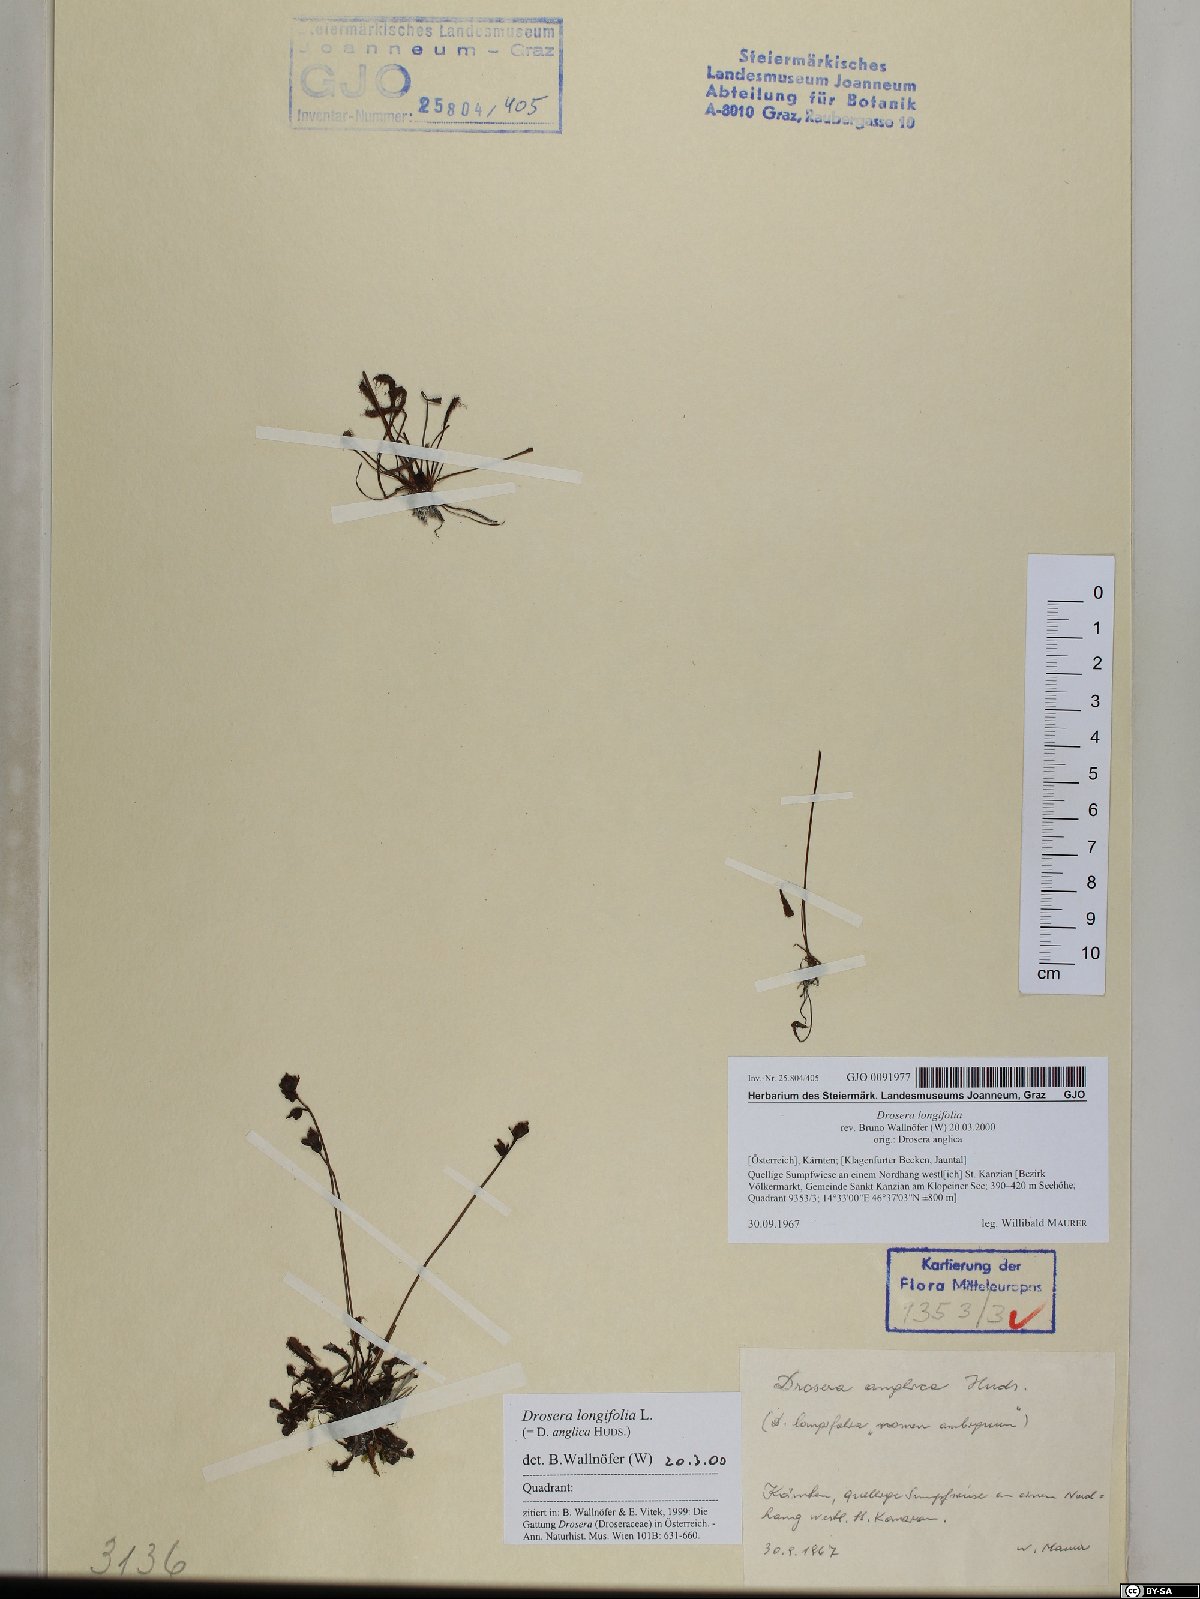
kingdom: Plantae
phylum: Tracheophyta
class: Magnoliopsida
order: Caryophyllales
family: Droseraceae
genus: Drosera
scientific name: Drosera anglica
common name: Great sundew
